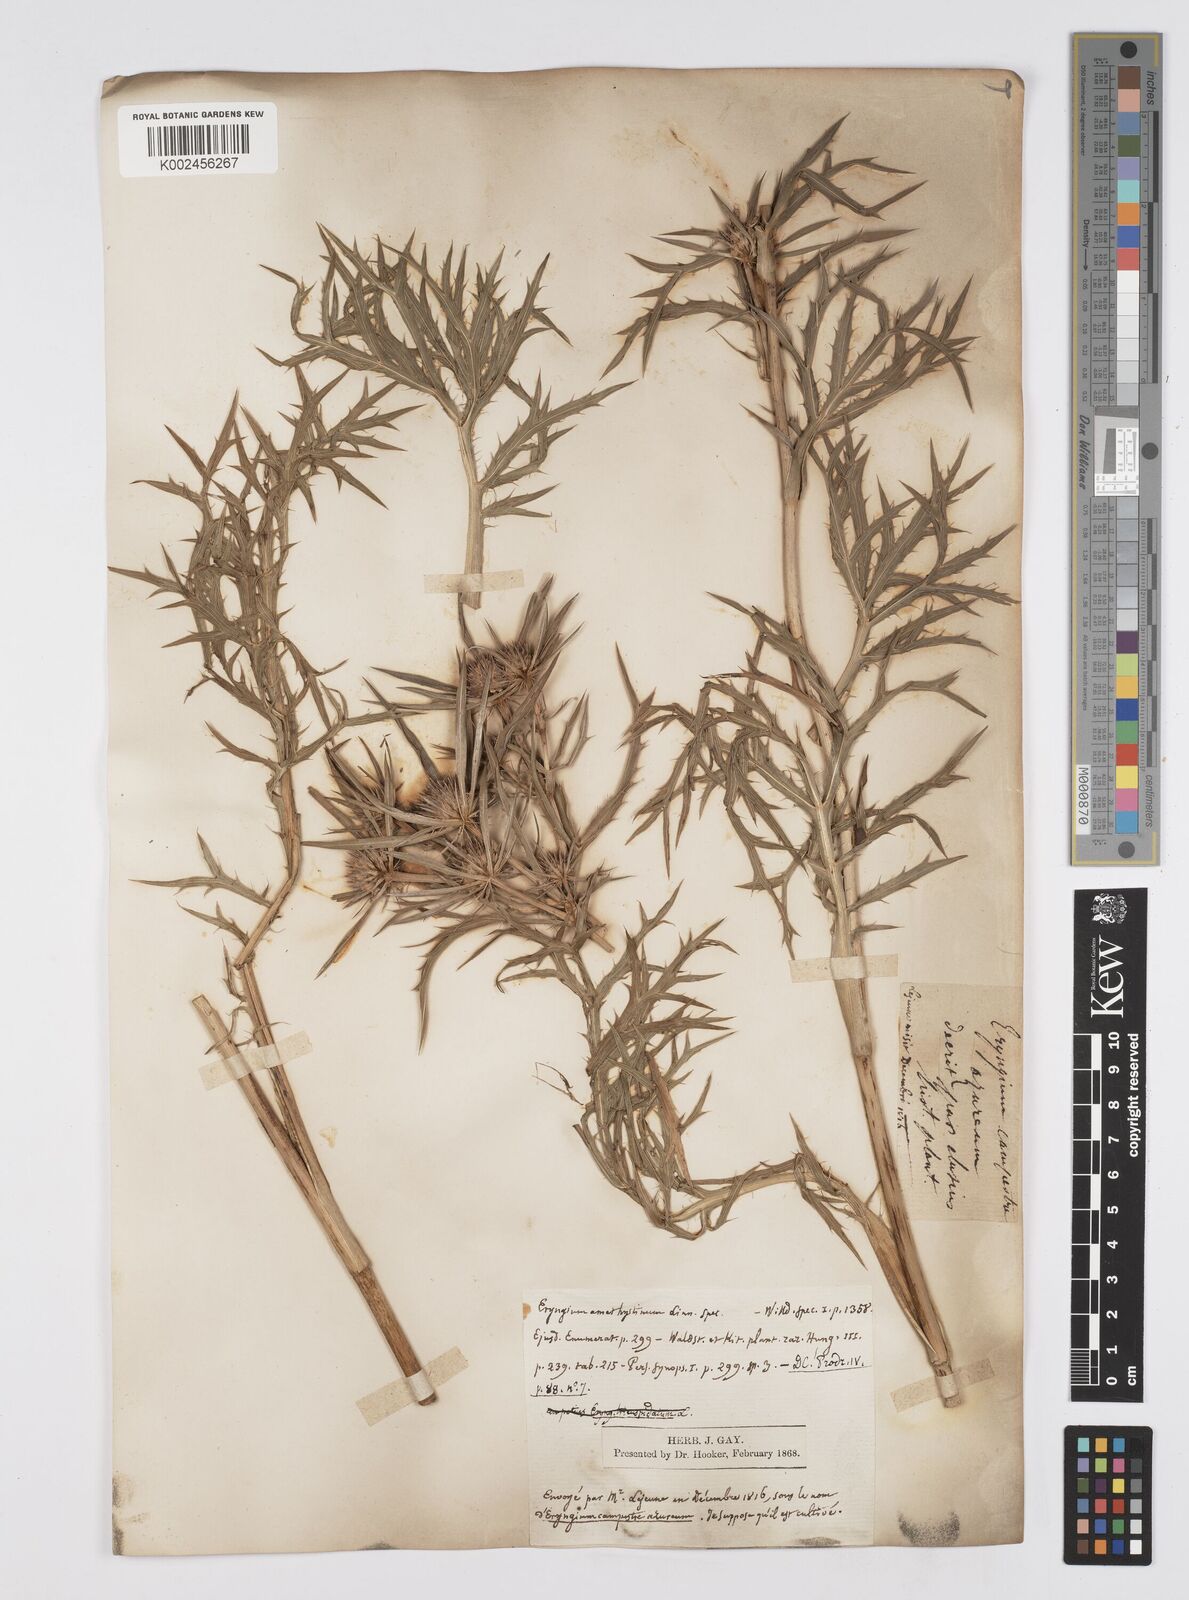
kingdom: Plantae
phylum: Tracheophyta
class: Magnoliopsida
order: Apiales
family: Apiaceae
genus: Eryngium
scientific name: Eryngium amethystinum
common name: Amethyst eryngo
